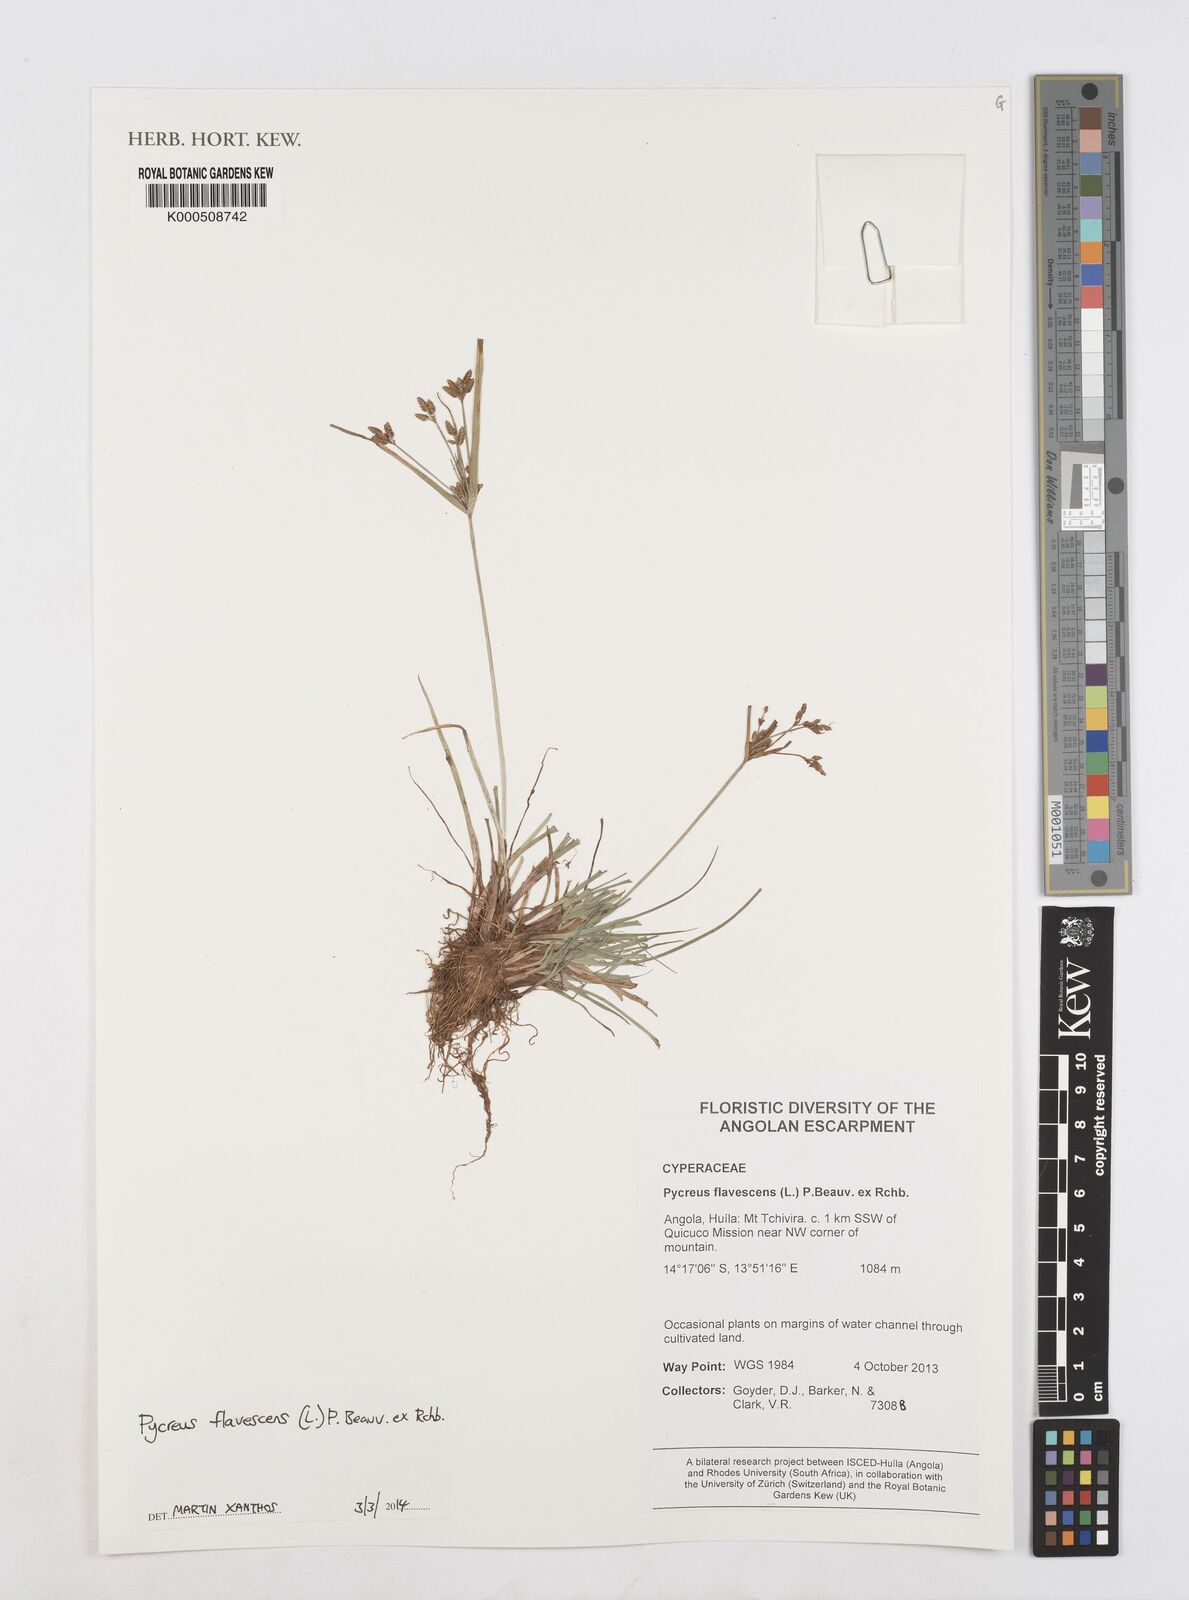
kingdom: Plantae
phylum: Tracheophyta
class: Liliopsida
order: Poales
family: Cyperaceae
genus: Cyperus
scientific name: Cyperus flavescens
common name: Yellow galingale
